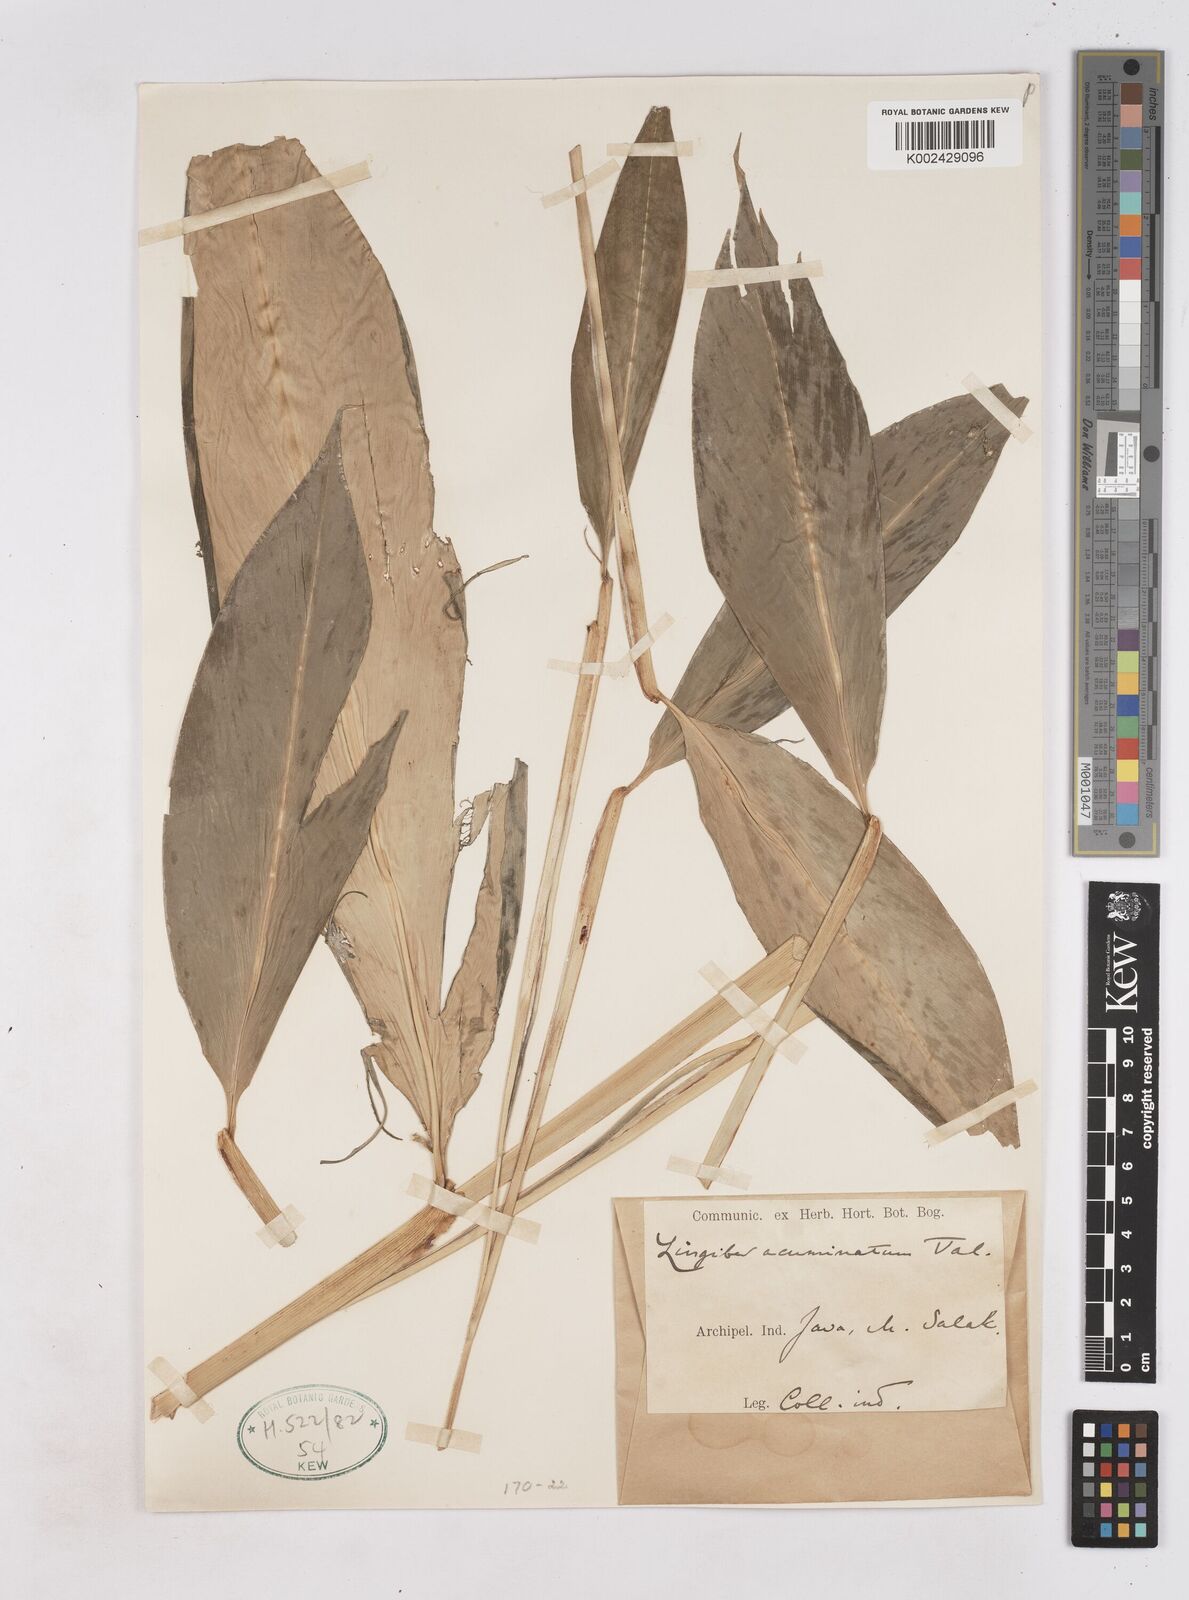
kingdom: Plantae
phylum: Tracheophyta
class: Liliopsida
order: Zingiberales
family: Zingiberaceae
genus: Zingiber
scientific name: Zingiber acuminatum
